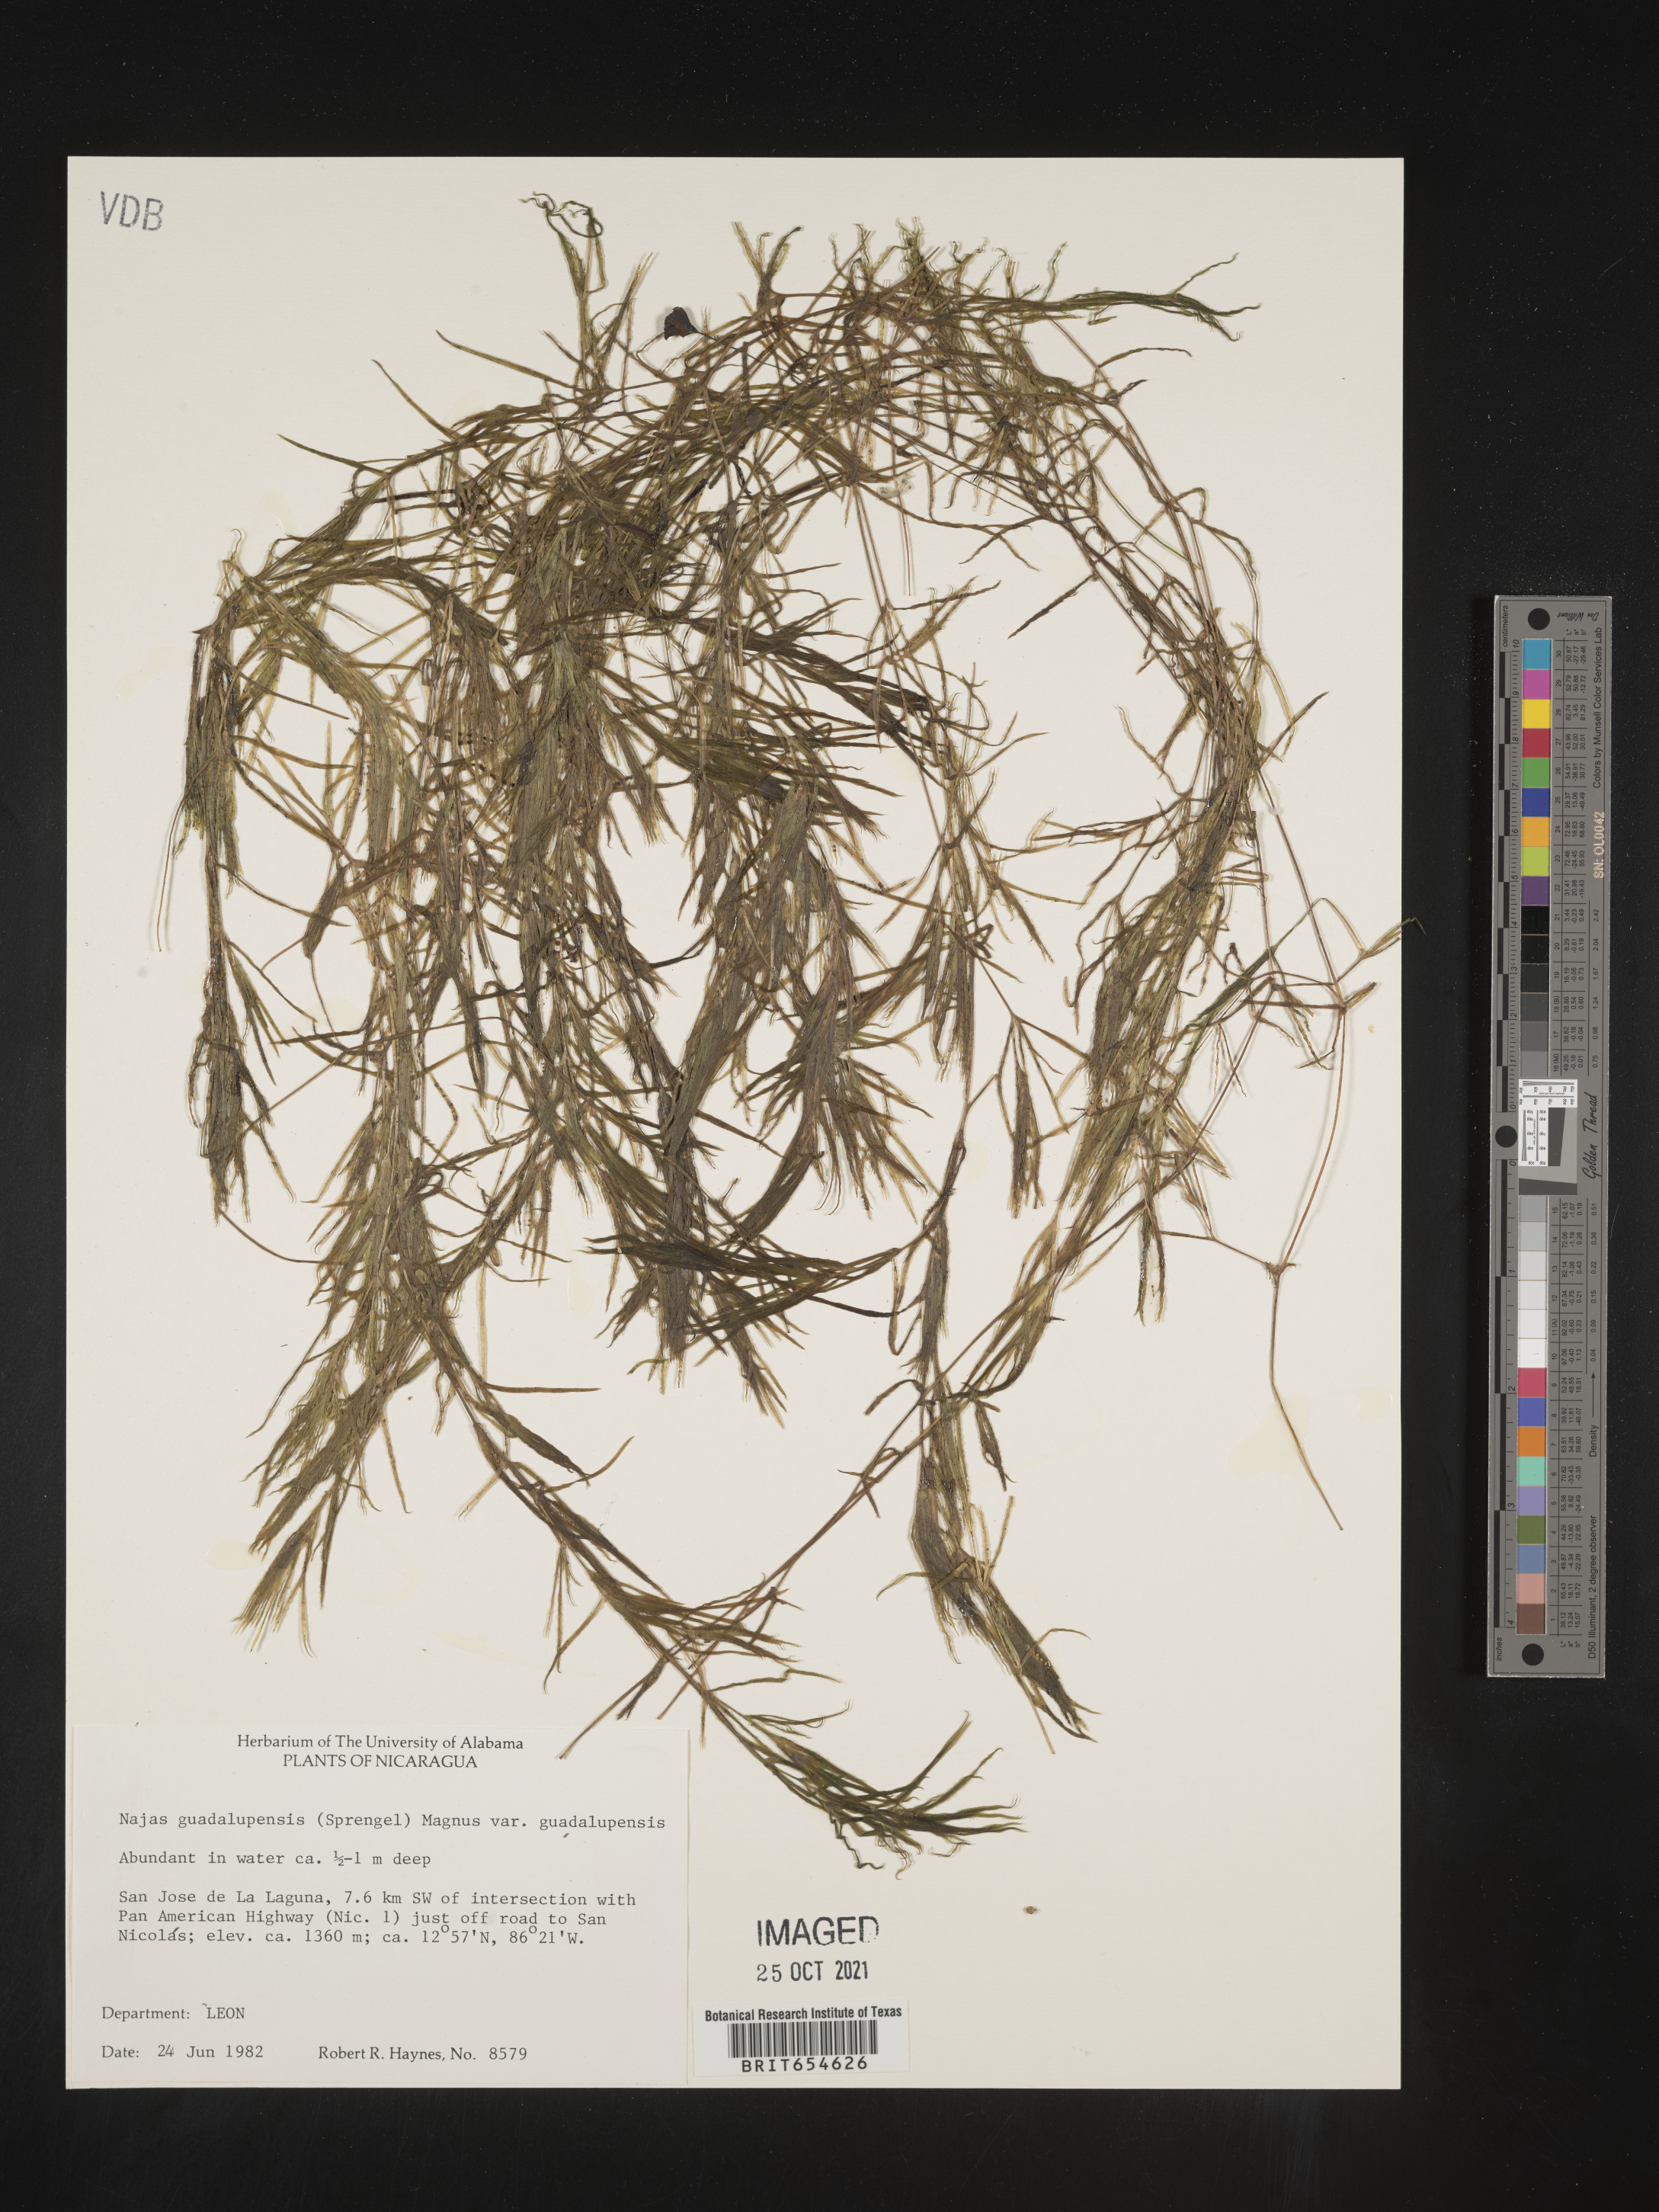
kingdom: Plantae
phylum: Tracheophyta
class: Liliopsida
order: Alismatales
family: Hydrocharitaceae
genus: Najas
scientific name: Najas
